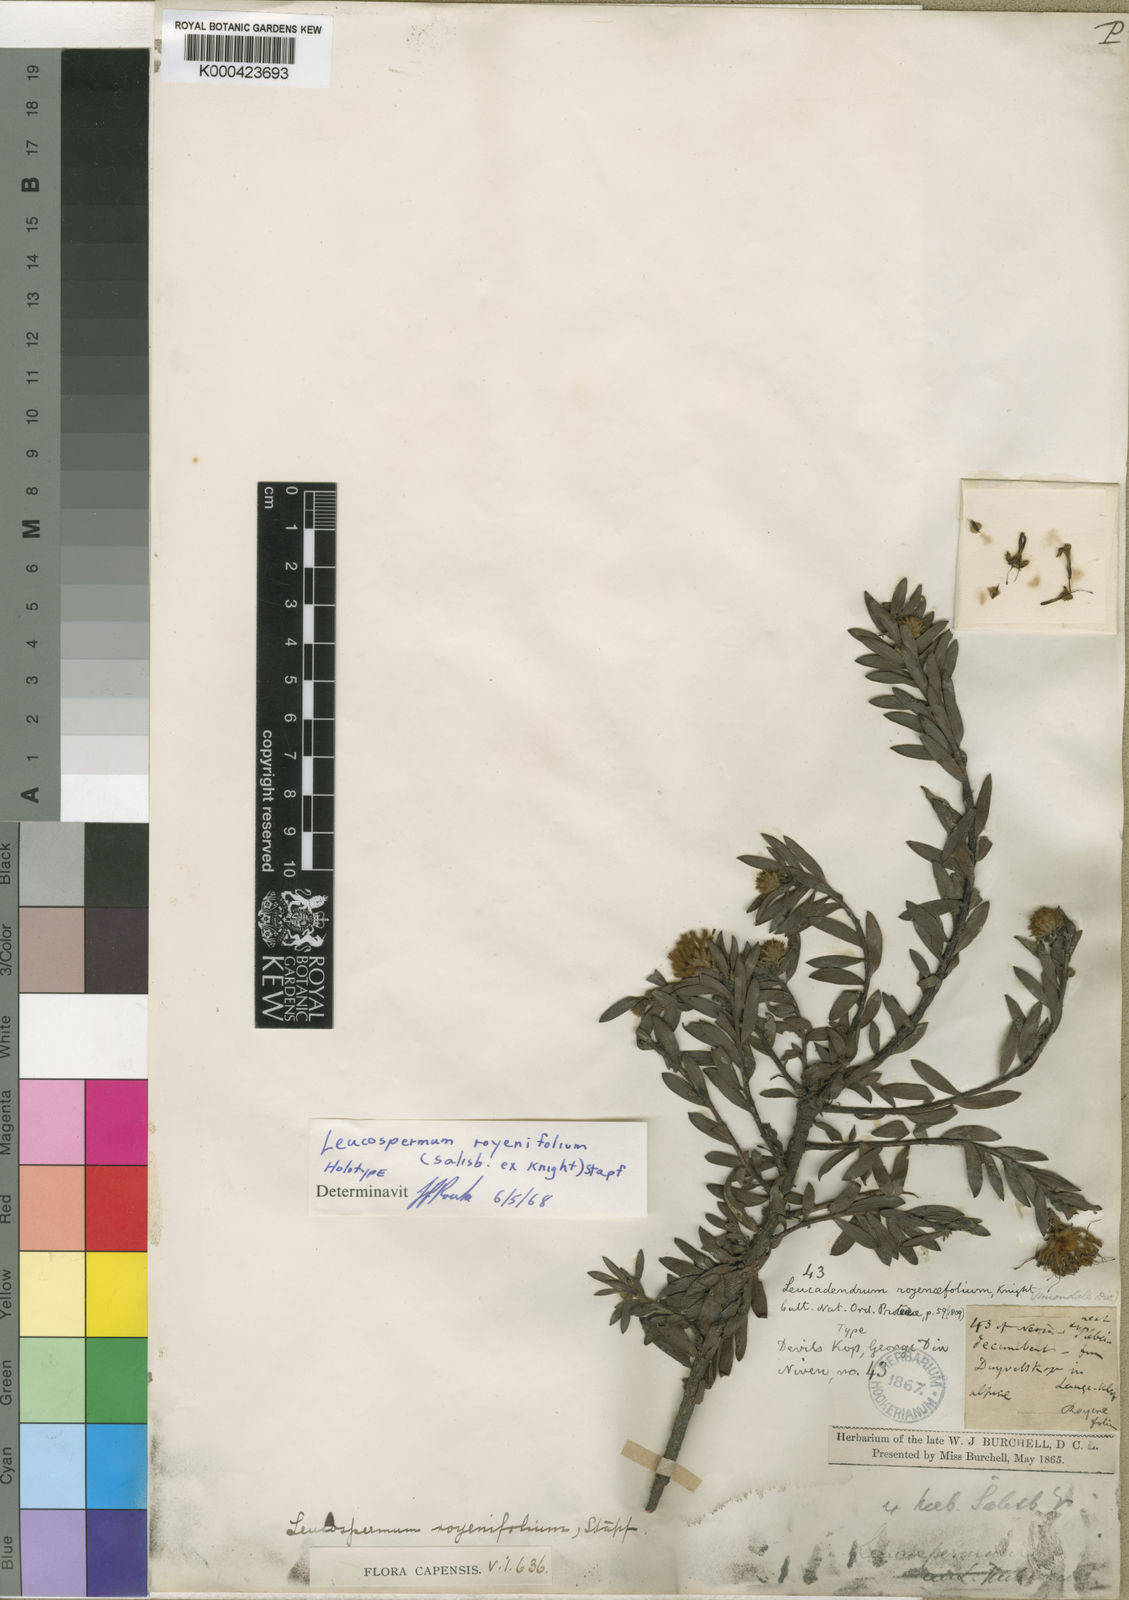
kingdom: Plantae
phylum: Tracheophyta
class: Magnoliopsida
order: Proteales
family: Proteaceae
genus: Leucospermum
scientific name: Leucospermum royenifolium
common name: Eastern pincushion
